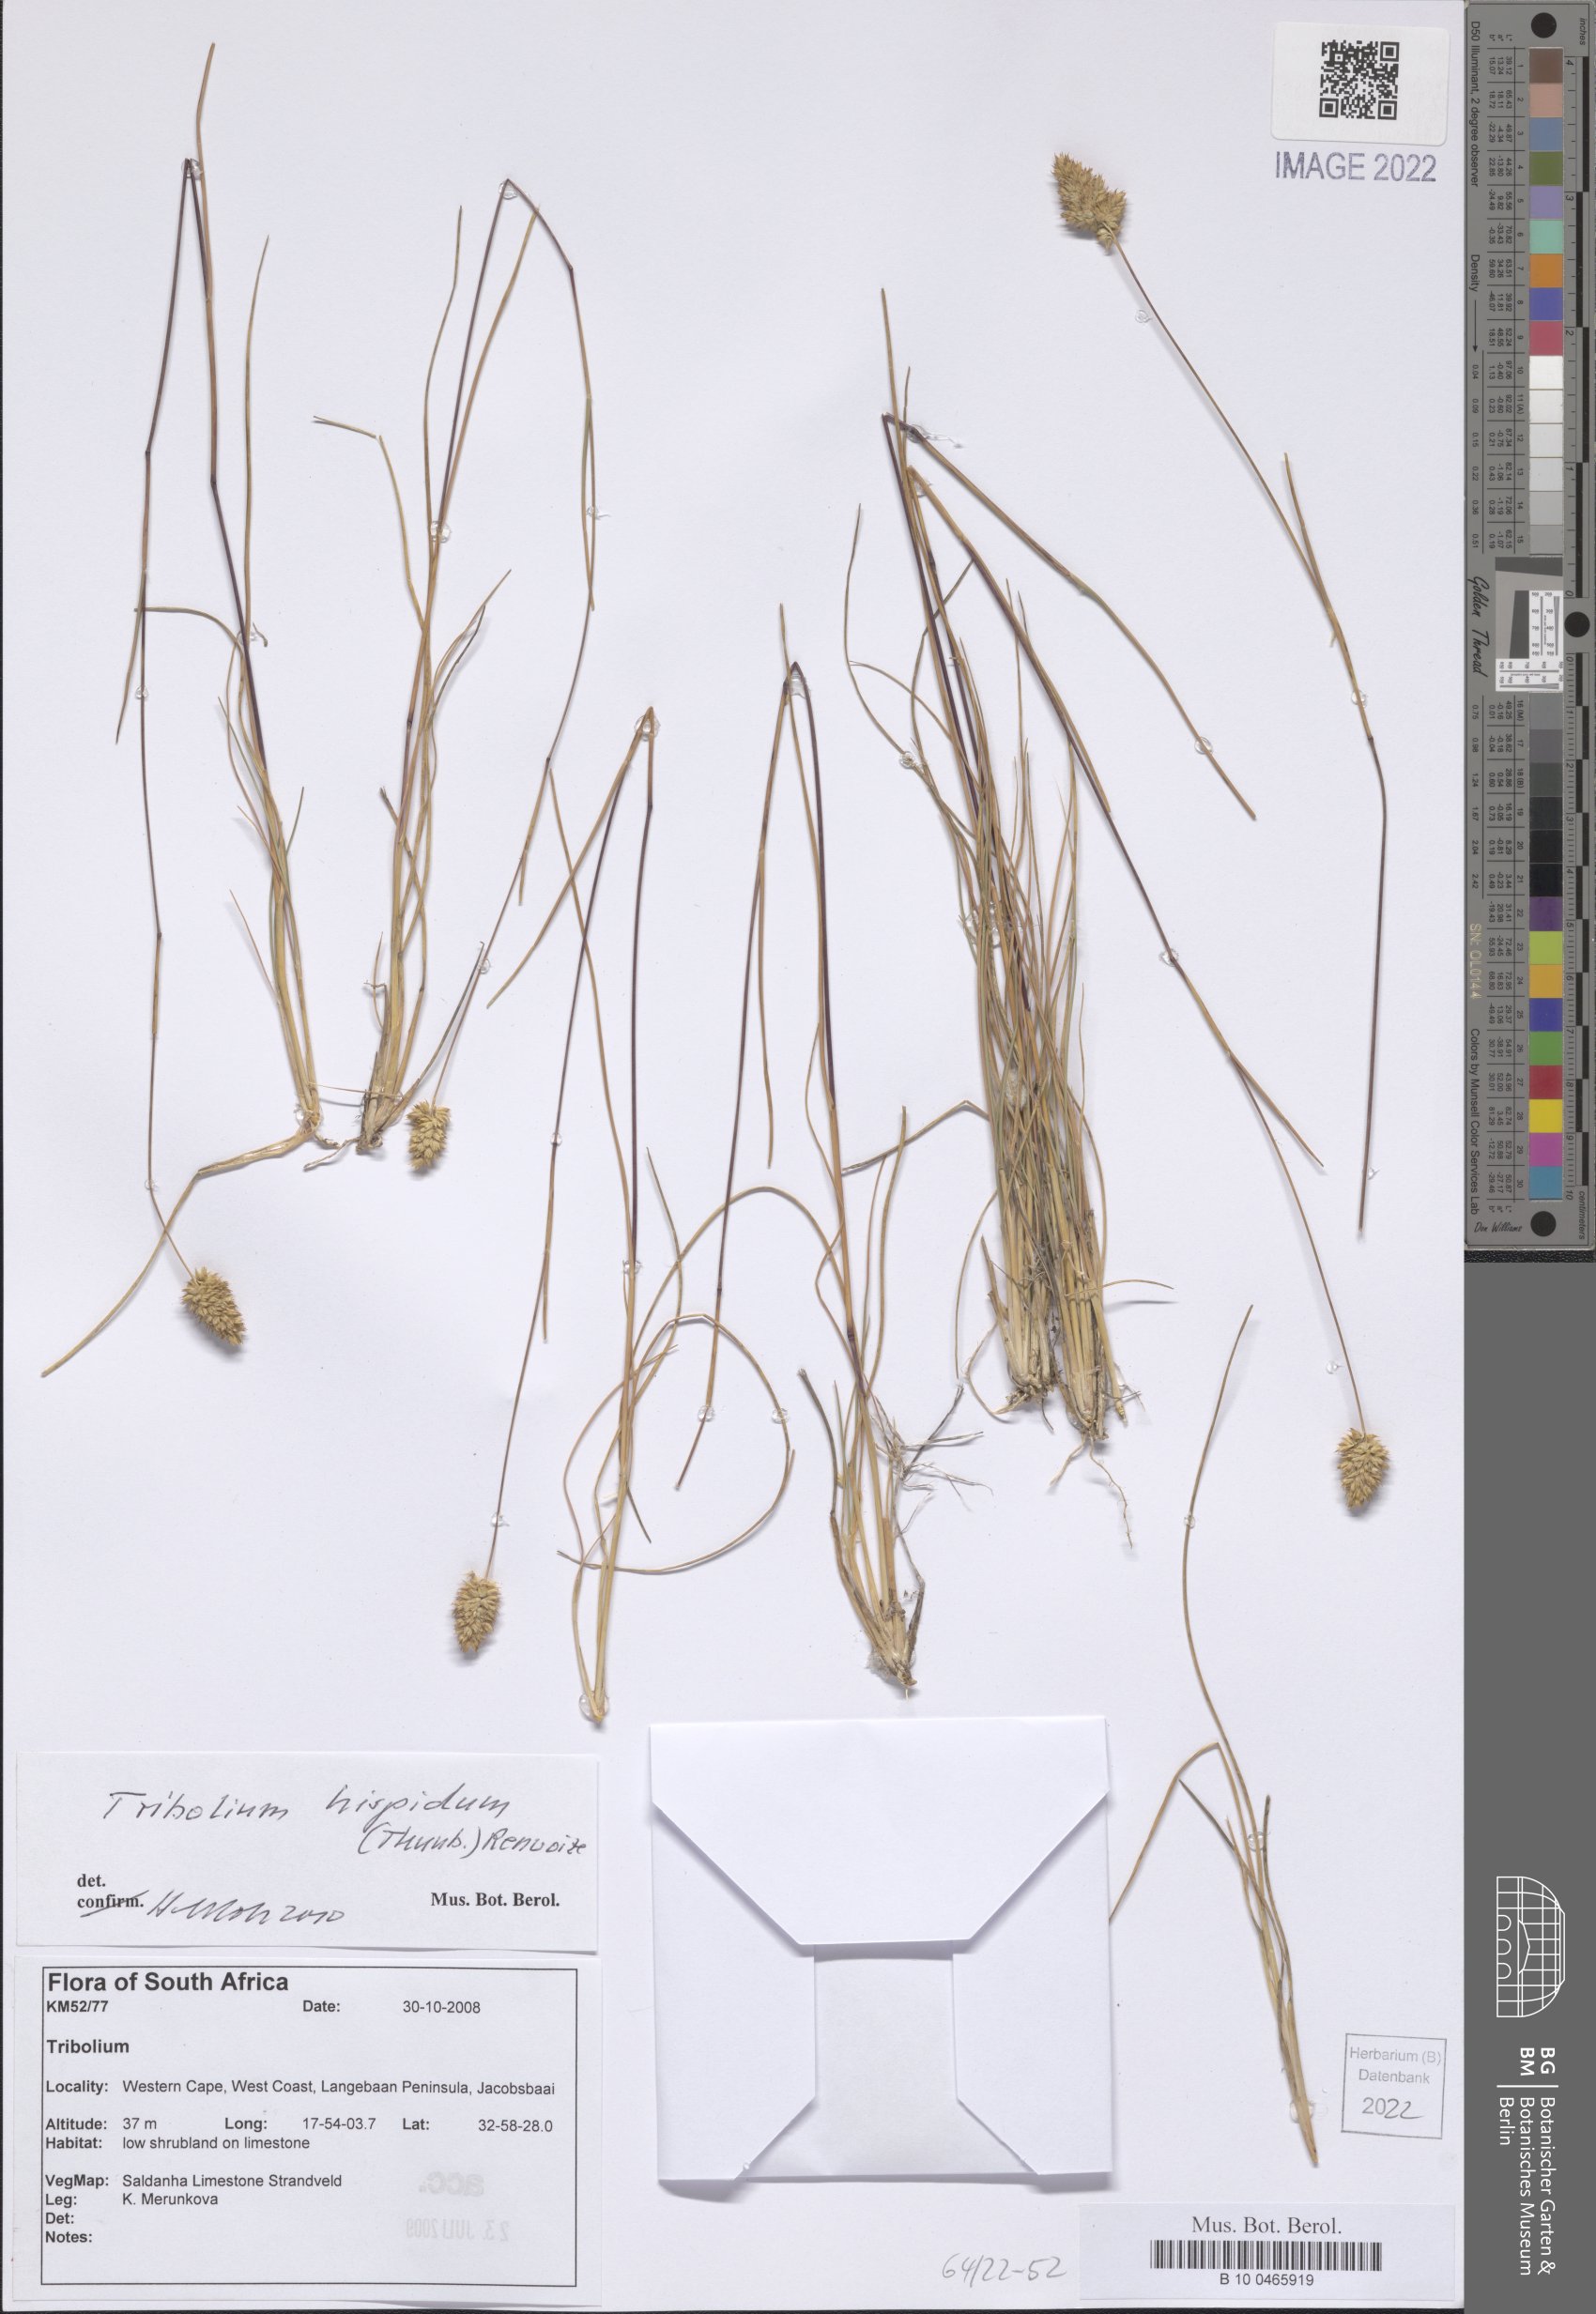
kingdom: Plantae
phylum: Tracheophyta
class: Liliopsida
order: Poales
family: Poaceae
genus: Tribolium
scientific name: Tribolium hispidum
